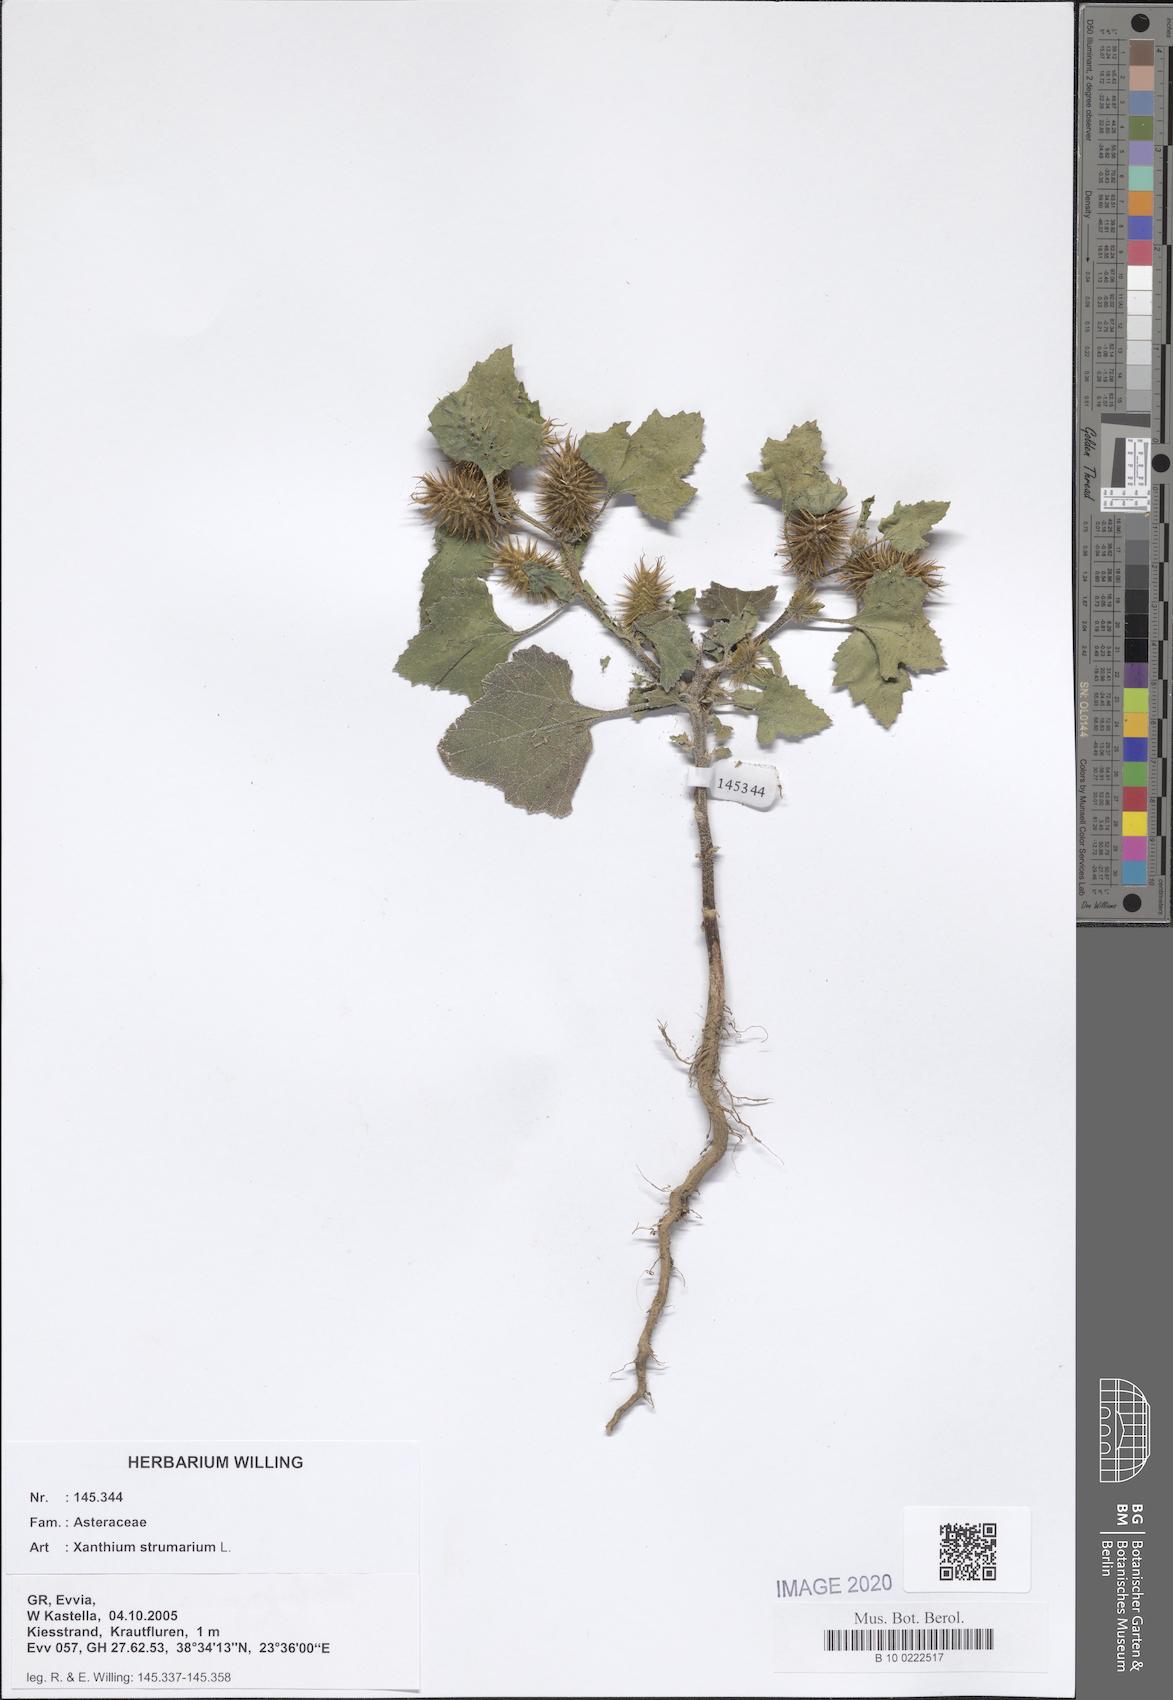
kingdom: Plantae
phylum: Tracheophyta
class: Magnoliopsida
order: Asterales
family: Asteraceae
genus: Xanthium
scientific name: Xanthium strumarium
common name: Rough cocklebur
